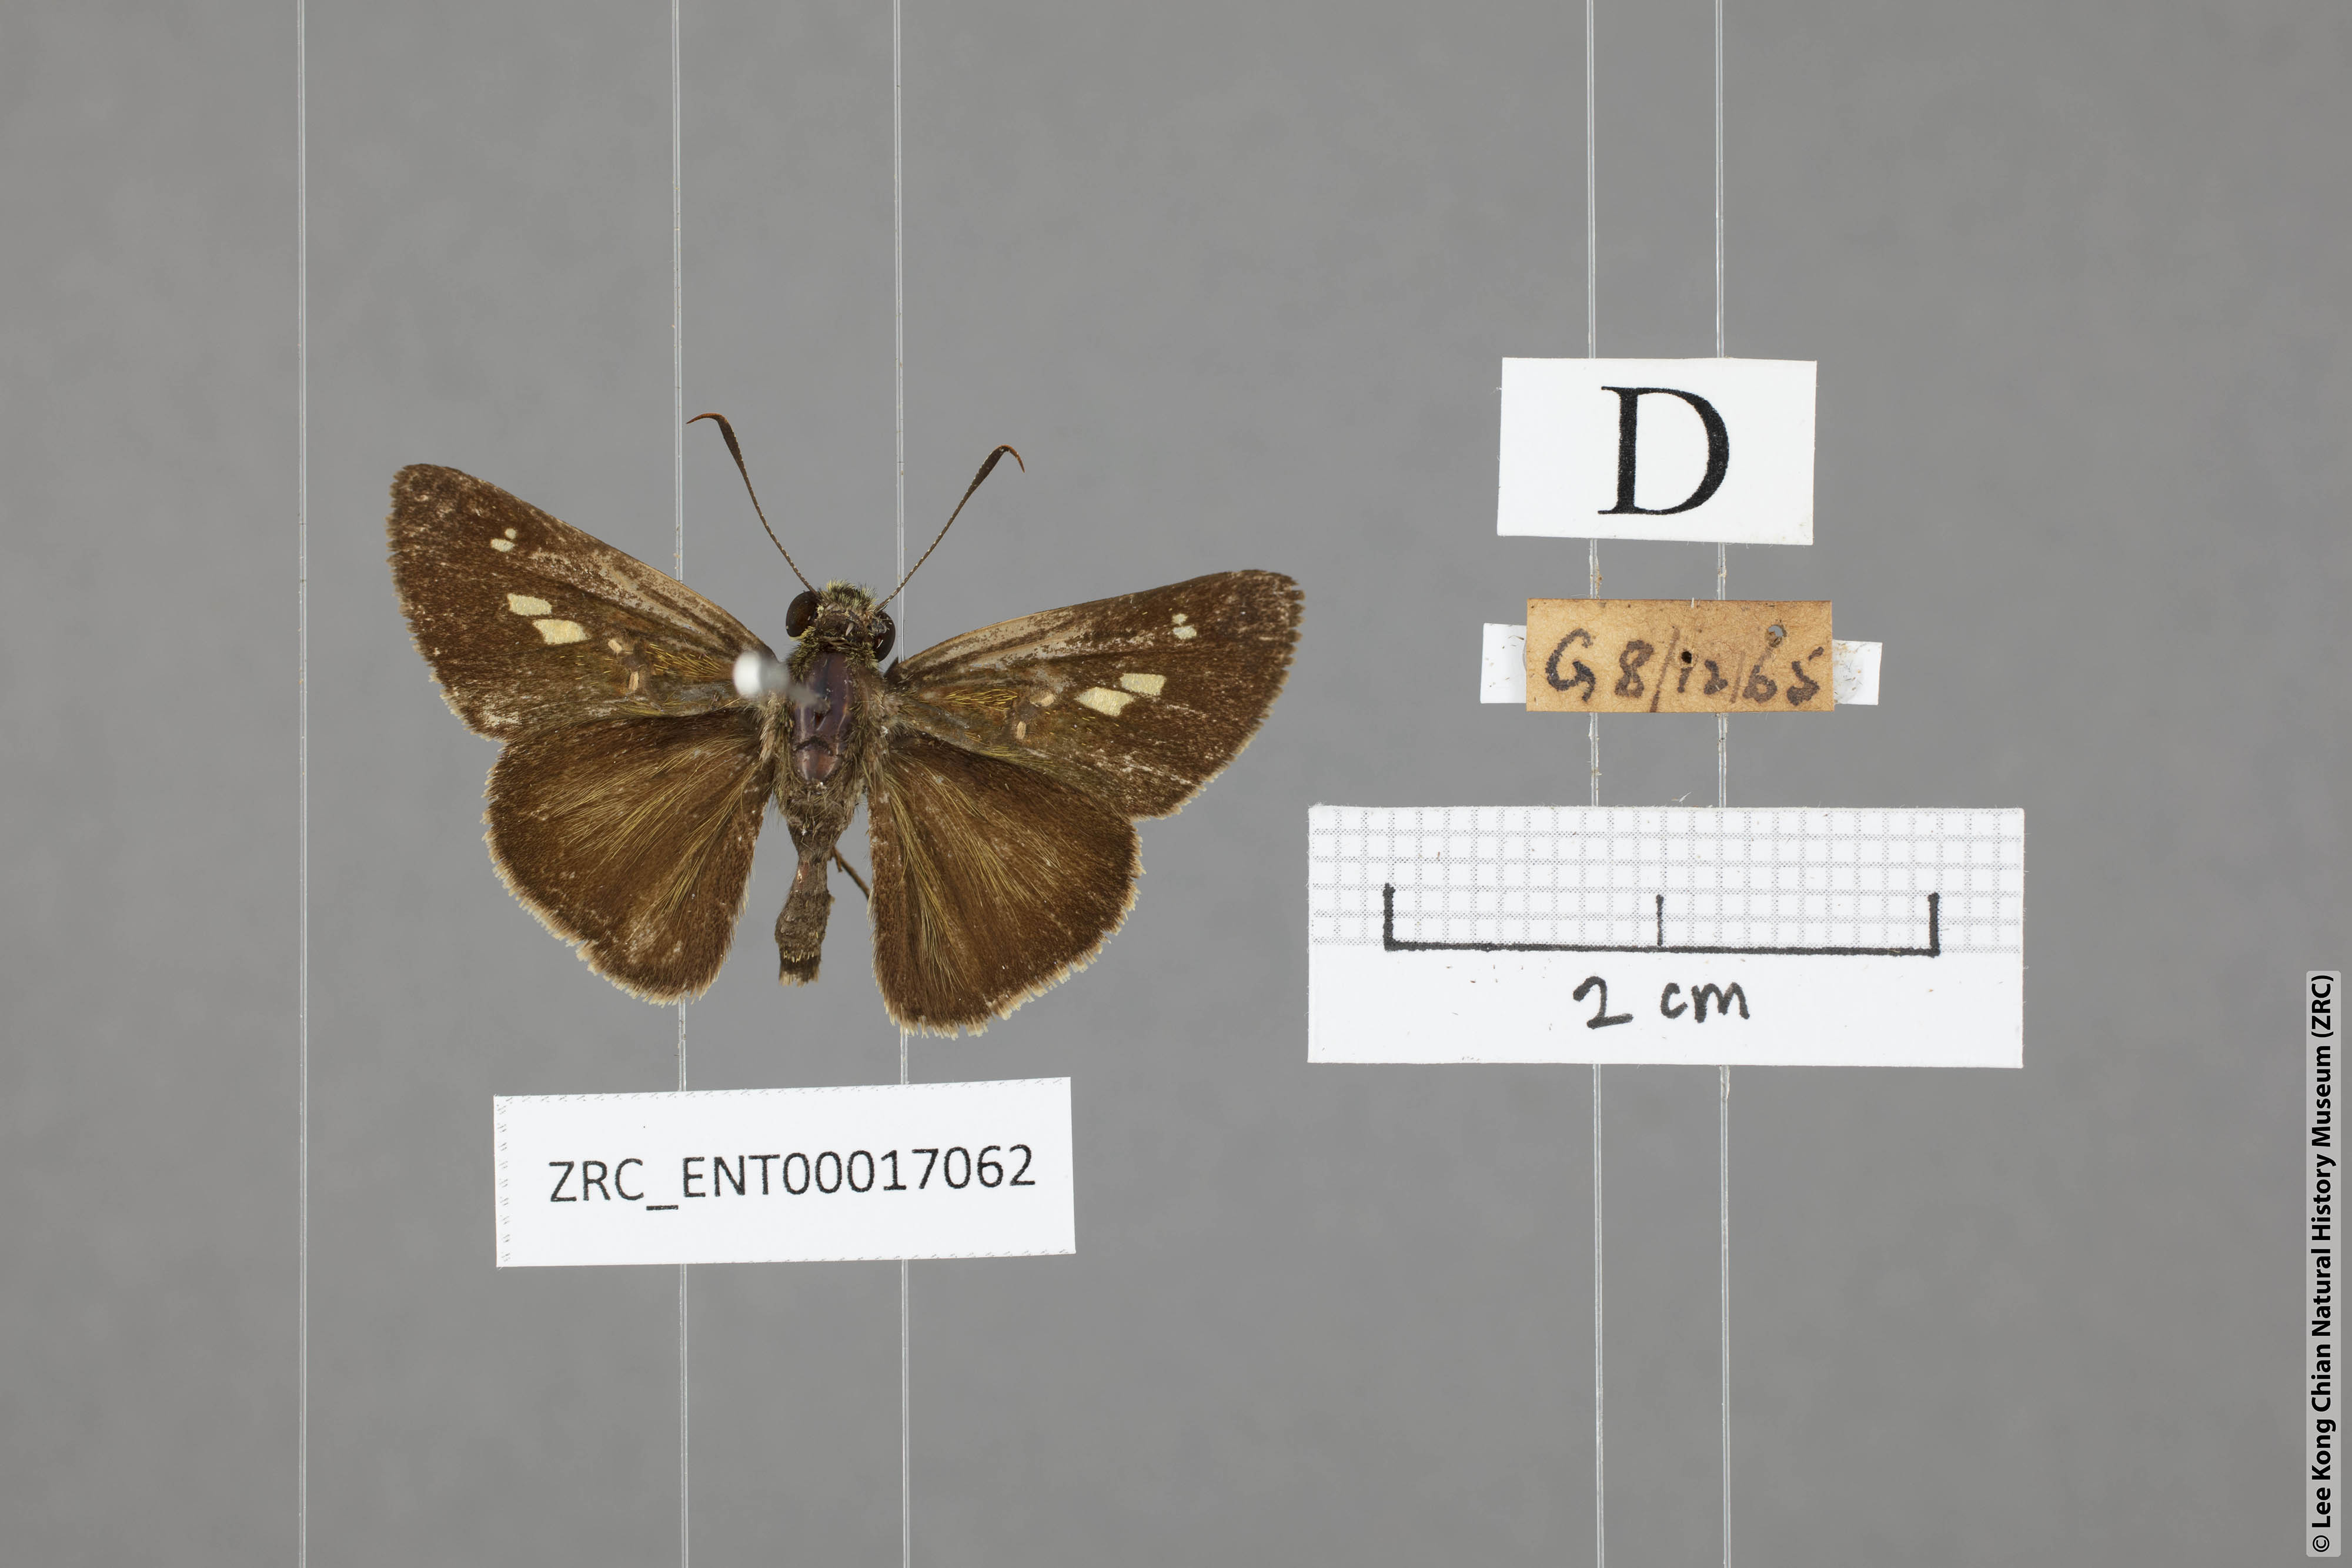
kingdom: Animalia
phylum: Arthropoda
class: Insecta
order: Lepidoptera
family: Hesperiidae
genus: Halpe
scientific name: Halpe sikkima
